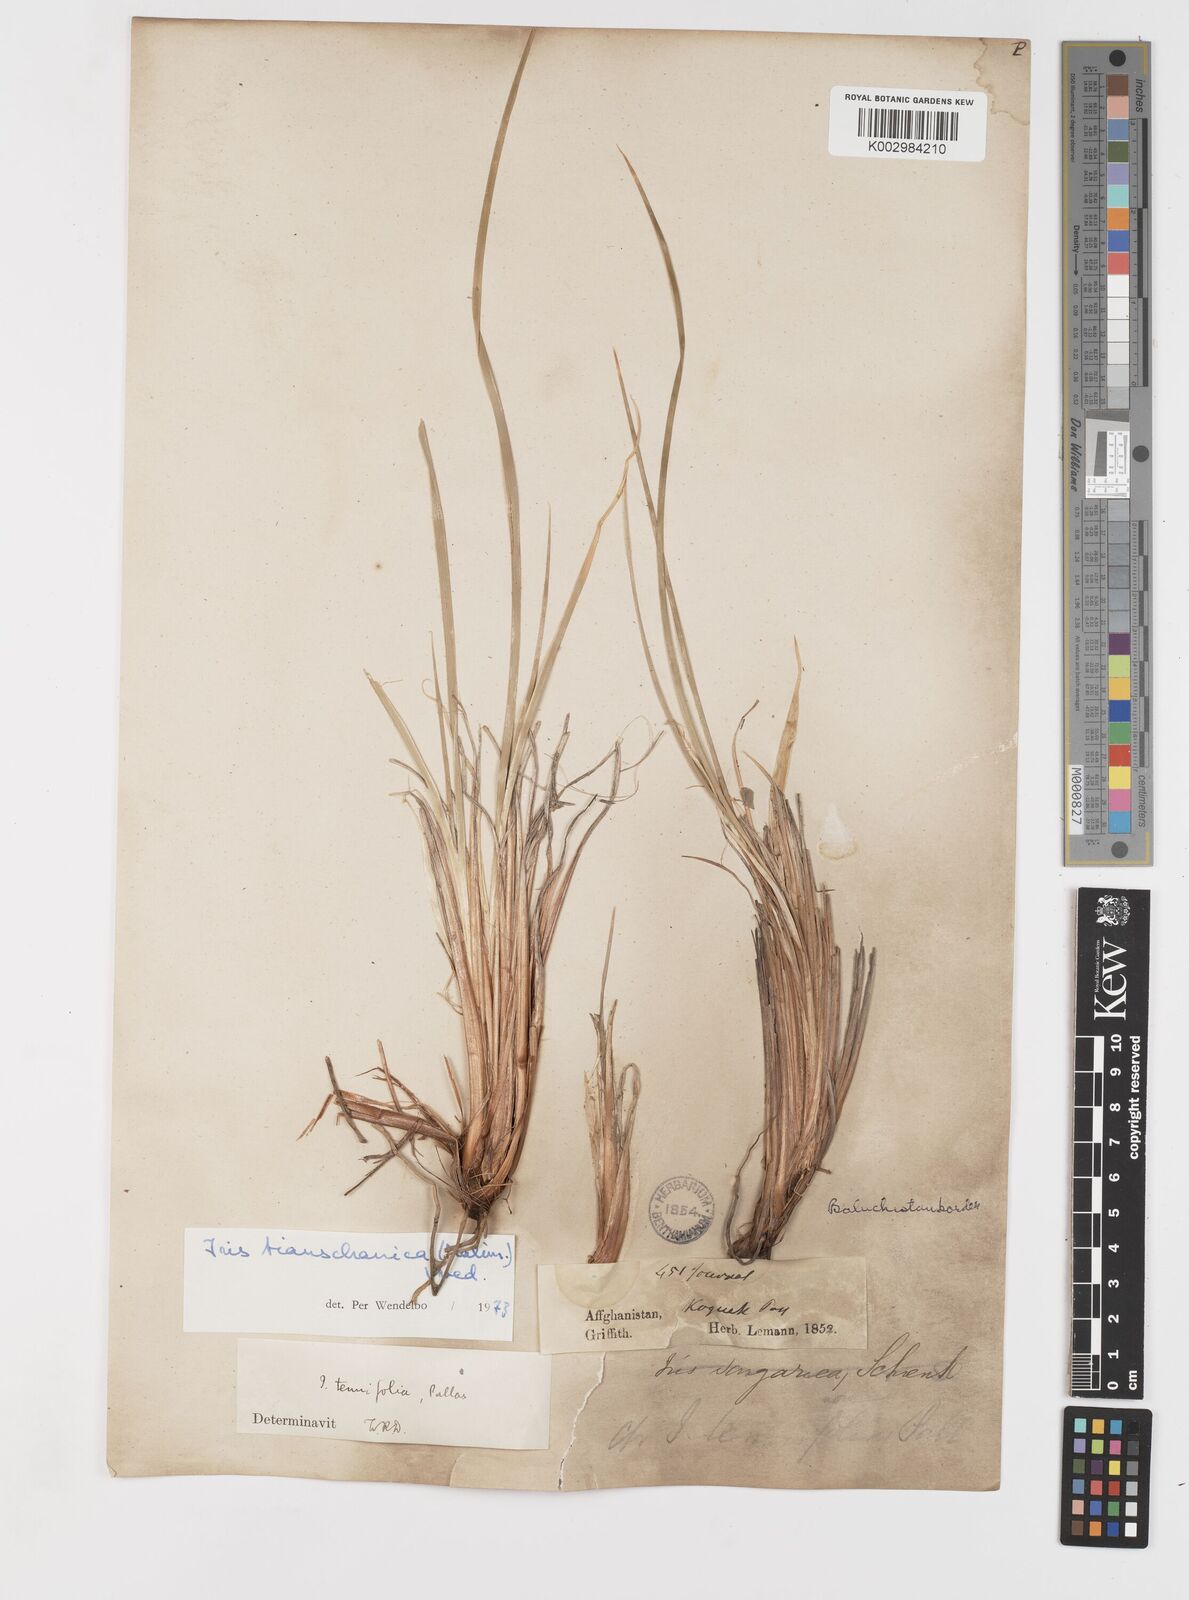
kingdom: Plantae
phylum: Tracheophyta
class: Liliopsida
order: Asparagales
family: Iridaceae
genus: Iris
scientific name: Iris loczyi
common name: Tian shan mountain iris
